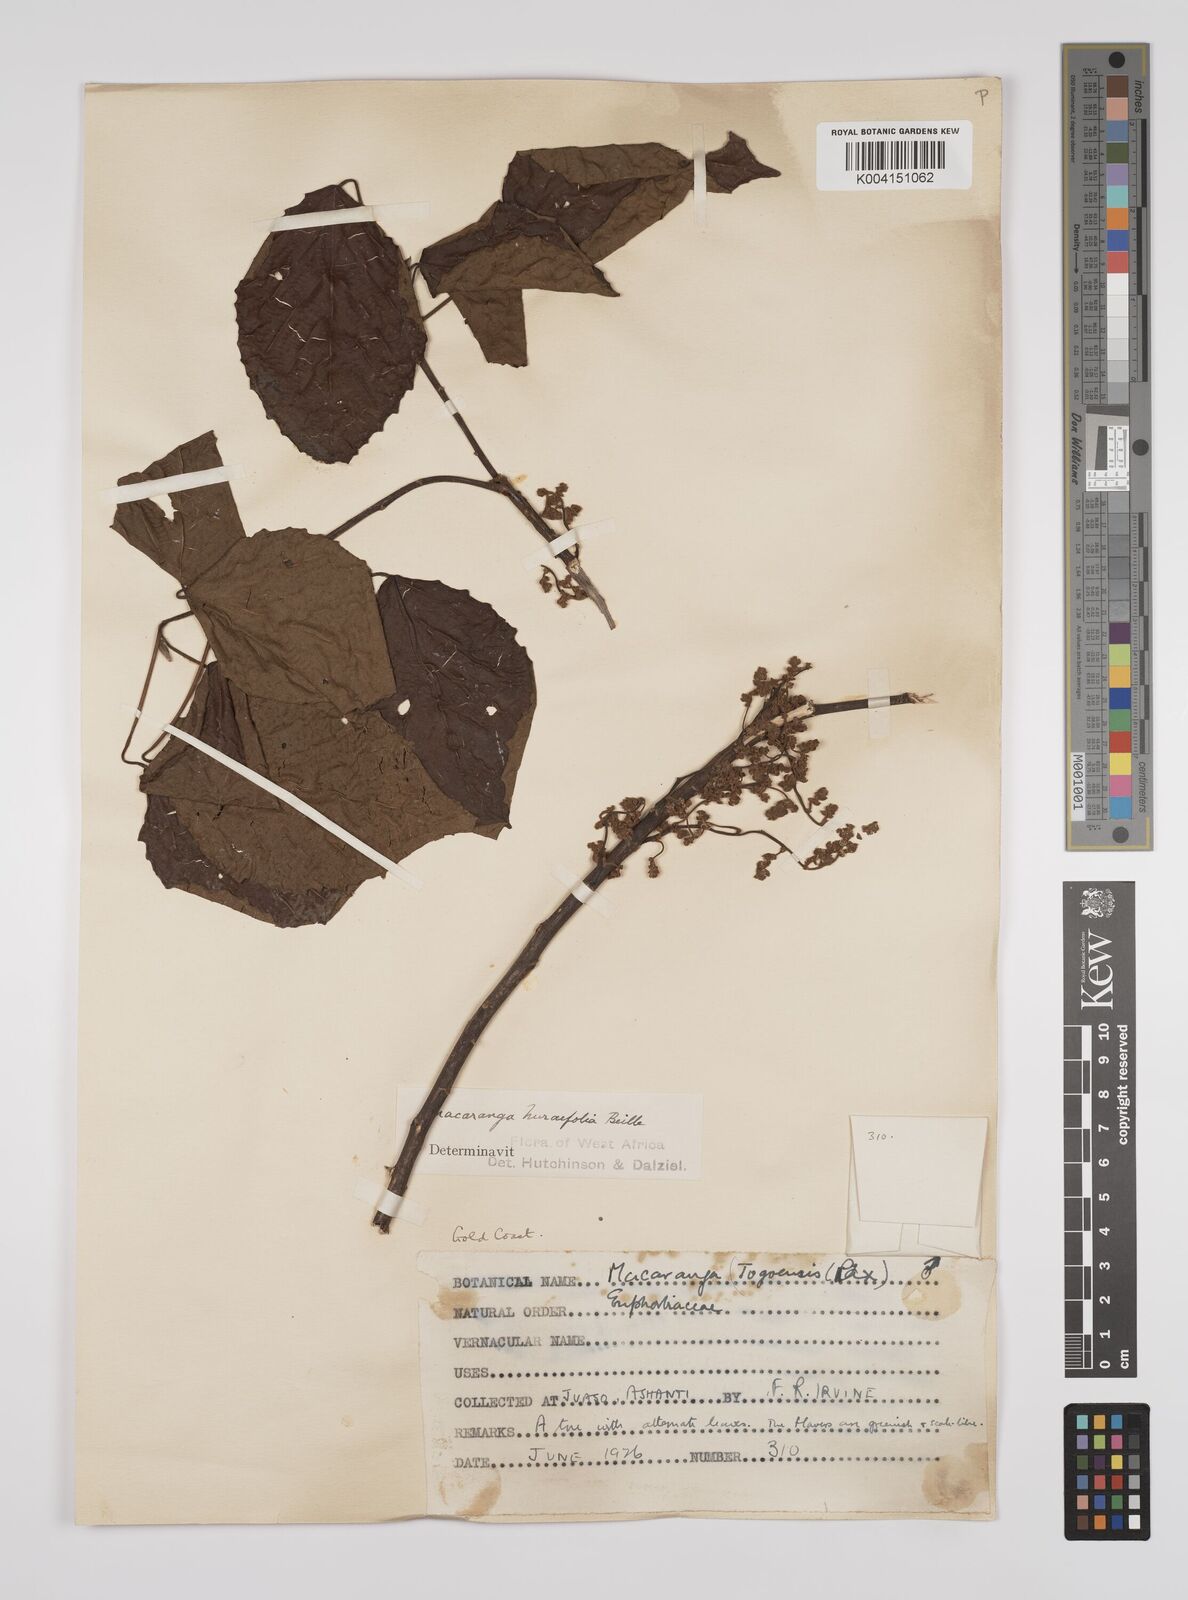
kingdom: Plantae
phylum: Tracheophyta
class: Magnoliopsida
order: Malpighiales
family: Euphorbiaceae
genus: Macaranga
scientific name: Macaranga hurifolia
